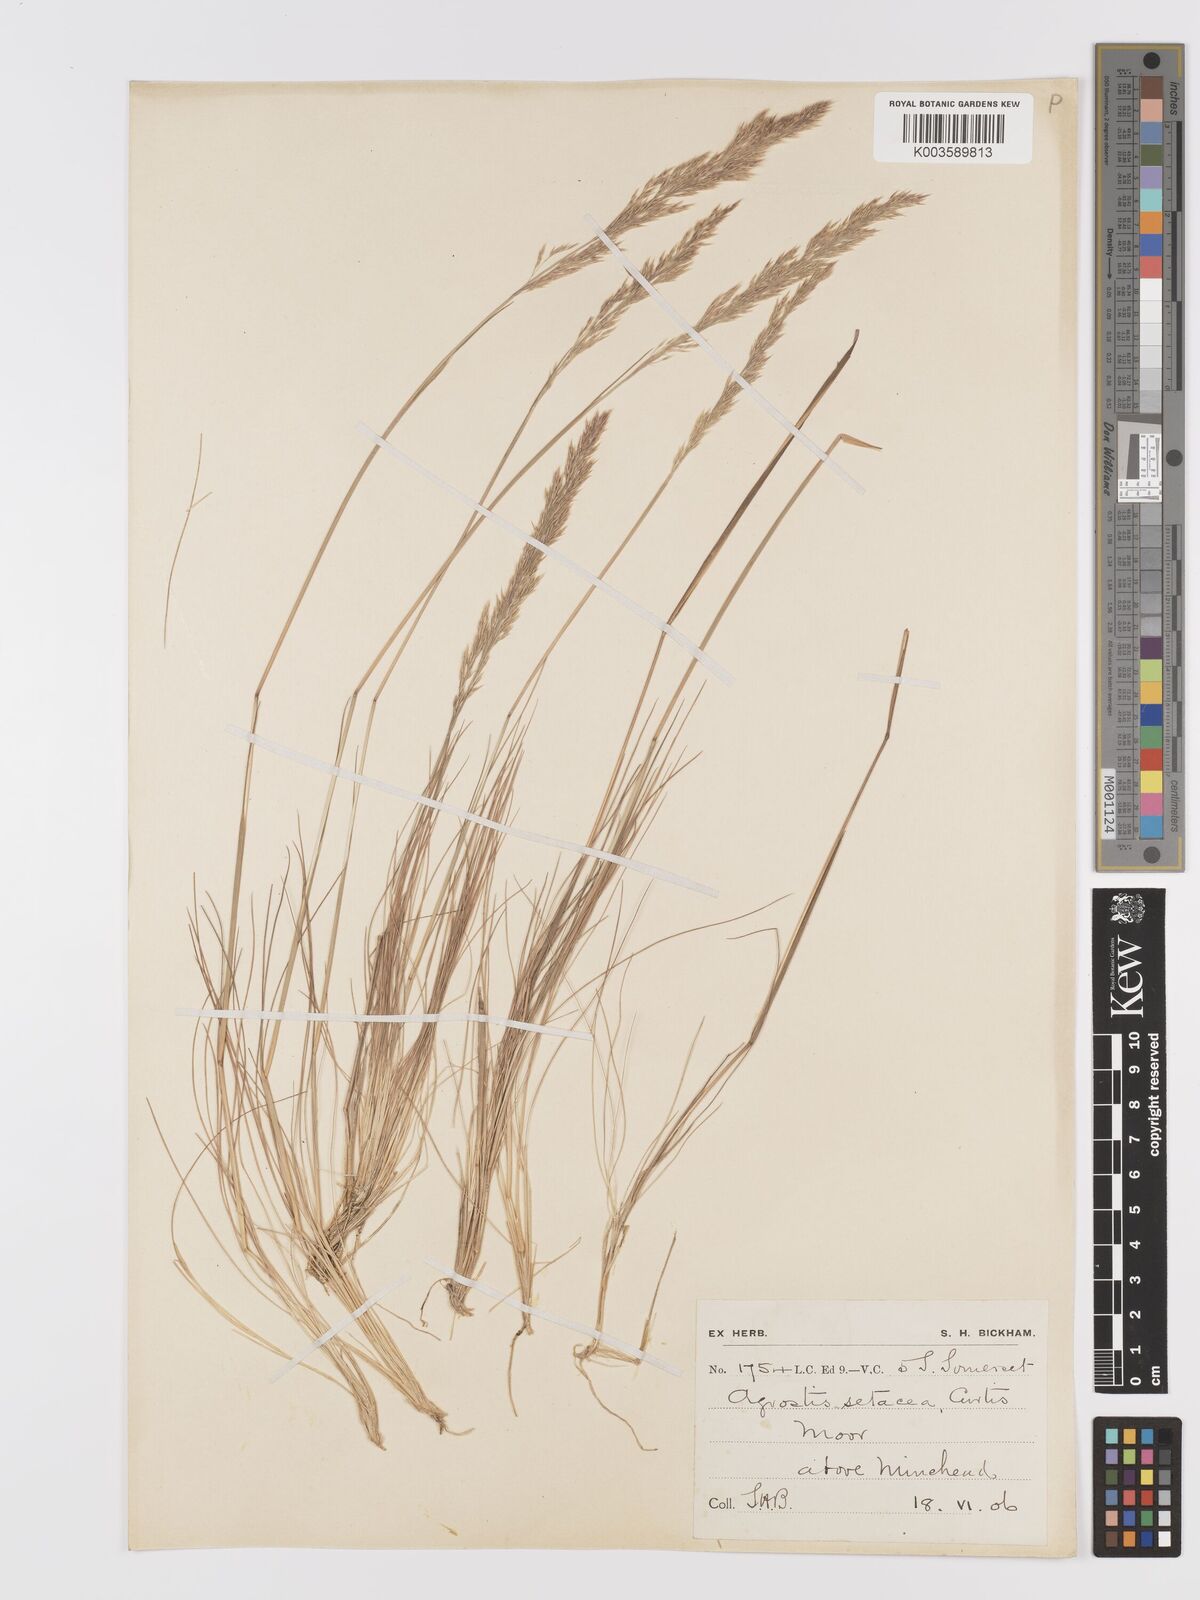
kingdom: Plantae
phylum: Tracheophyta
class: Liliopsida
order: Poales
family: Poaceae
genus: Alpagrostis
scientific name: Alpagrostis setacea
